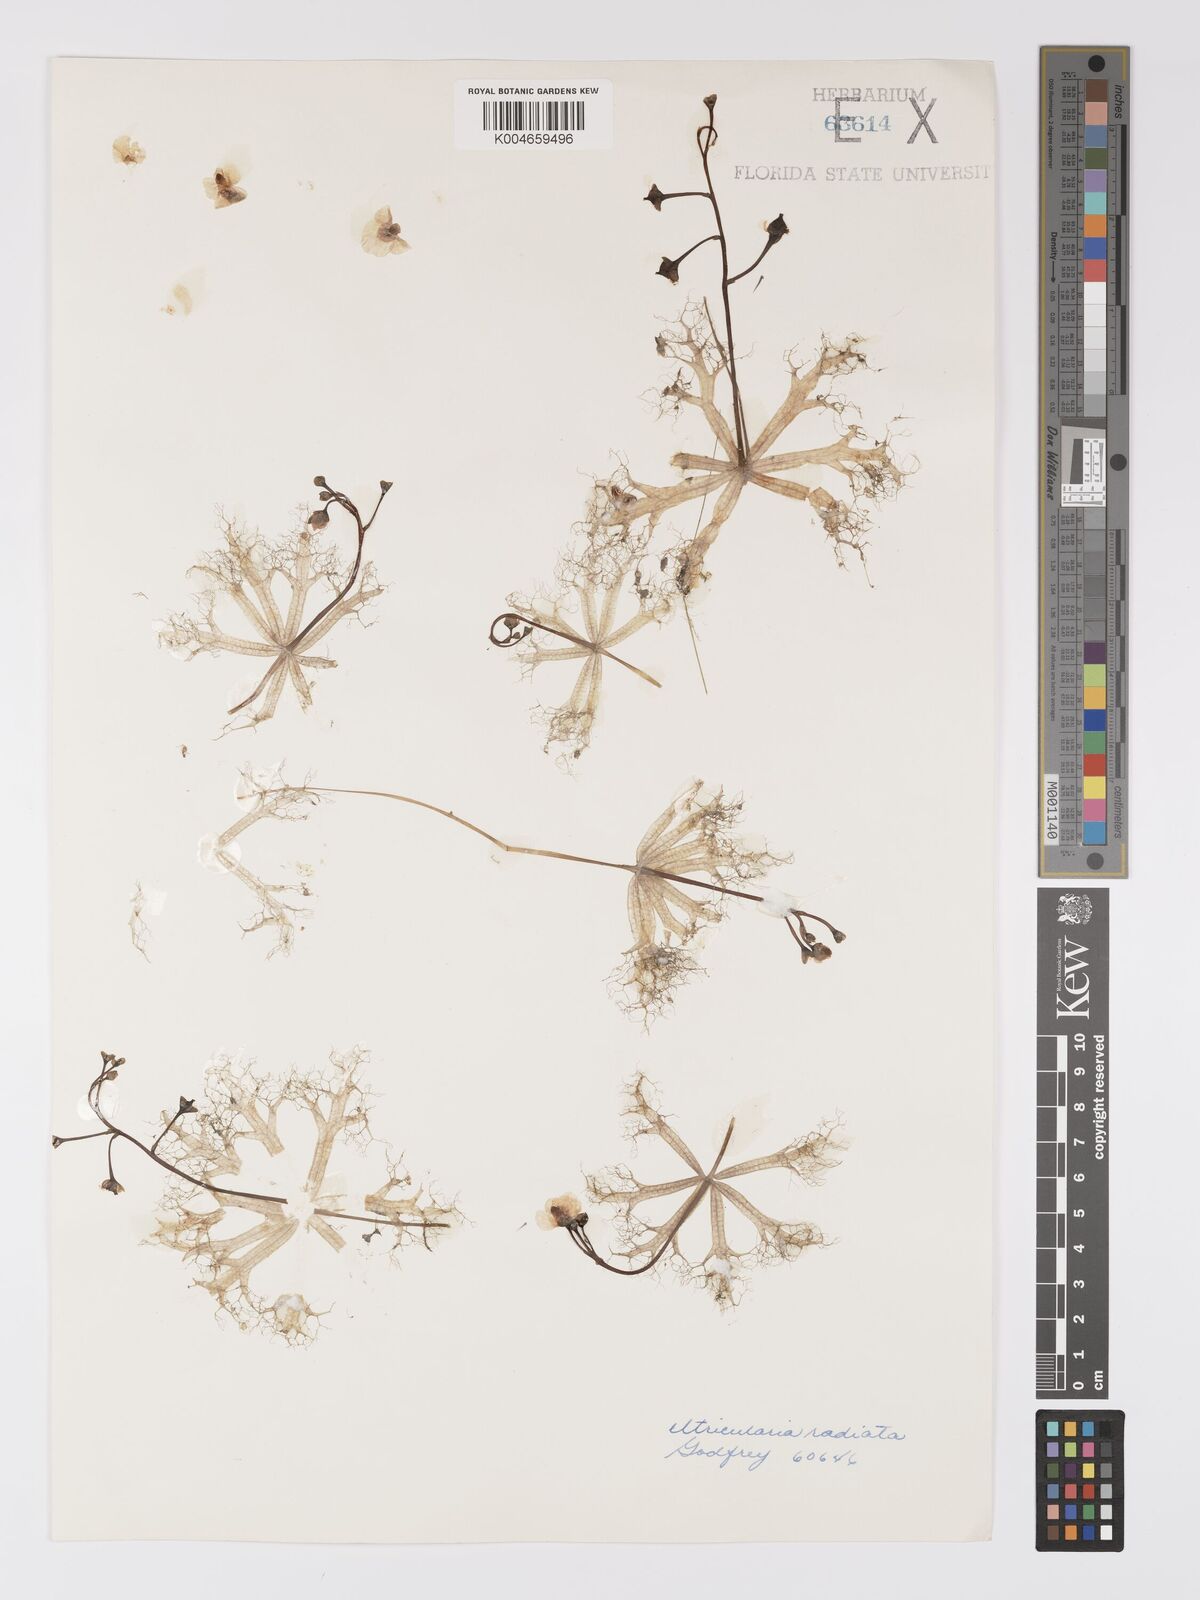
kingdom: Plantae
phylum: Tracheophyta
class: Magnoliopsida
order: Lamiales
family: Lentibulariaceae
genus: Utricularia
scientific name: Utricularia radiata
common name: Floating bladderwort
